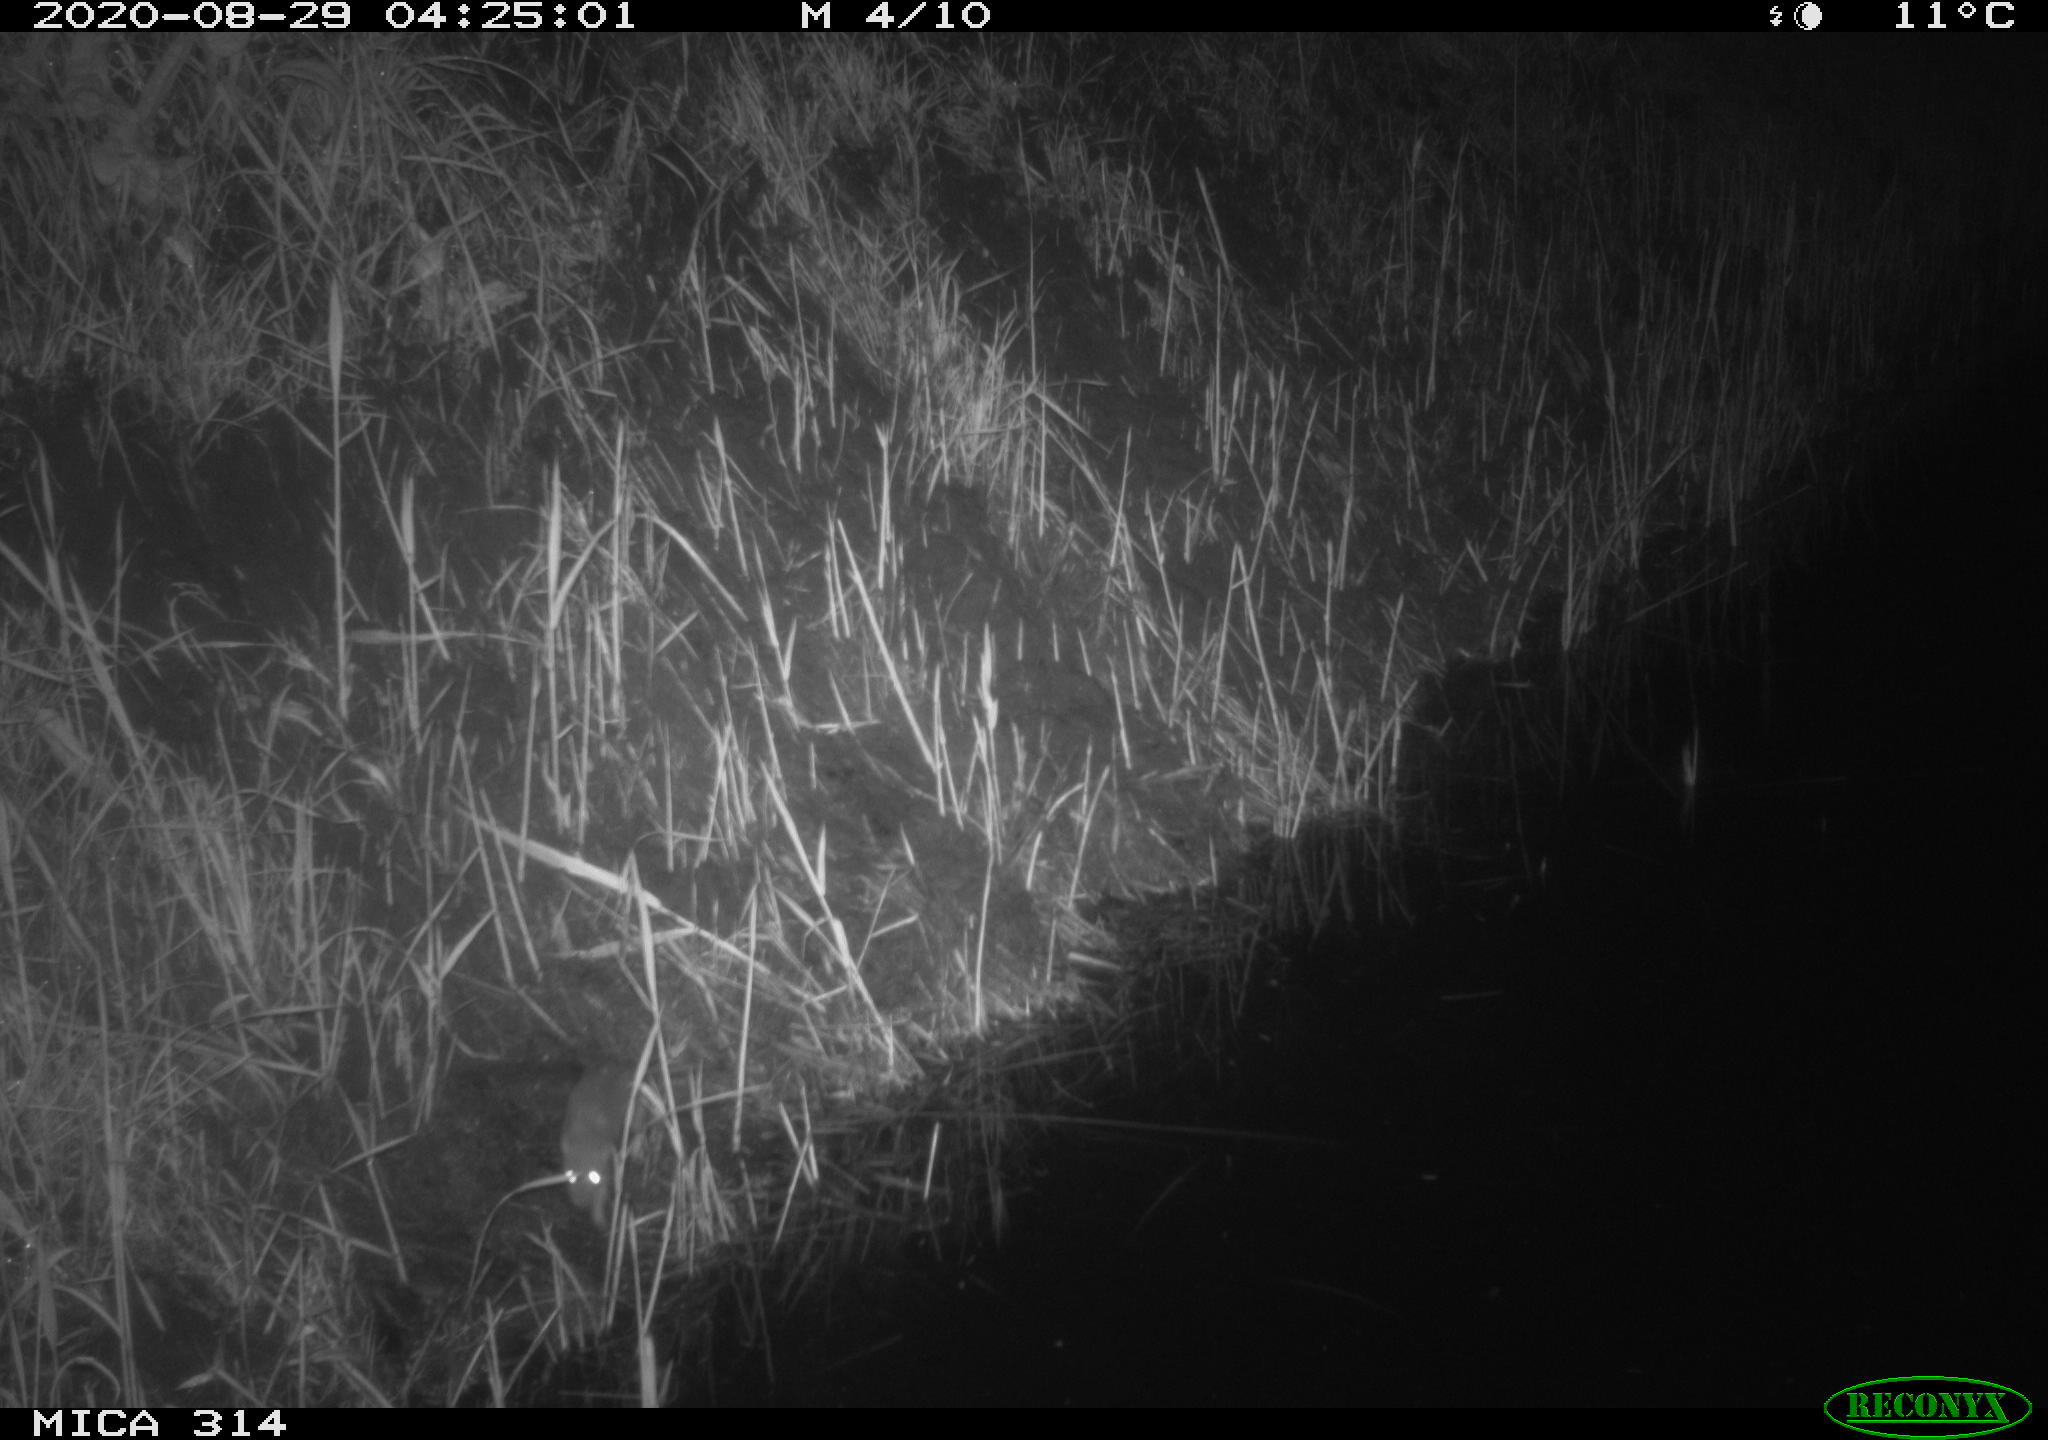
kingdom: Animalia
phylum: Chordata
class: Mammalia
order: Rodentia
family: Muridae
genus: Rattus
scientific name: Rattus norvegicus
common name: Brown rat
